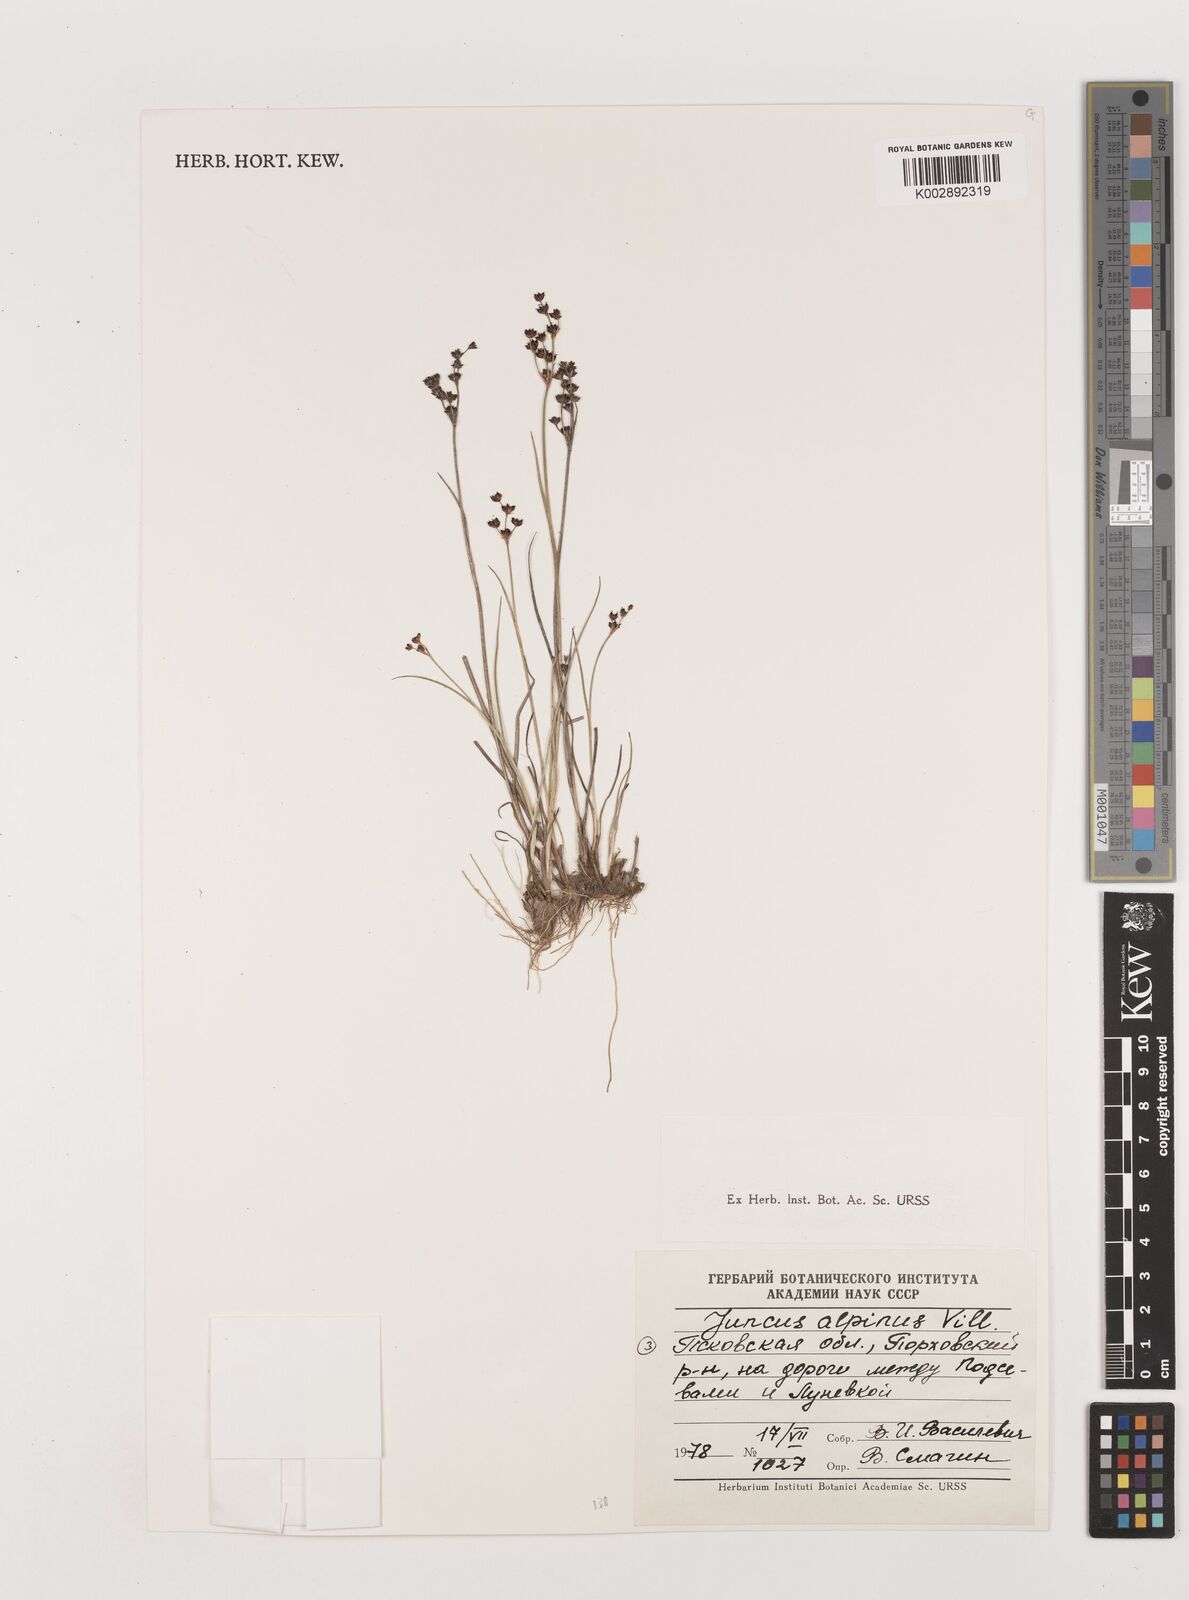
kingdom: Plantae
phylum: Tracheophyta
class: Liliopsida
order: Poales
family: Juncaceae
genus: Juncus
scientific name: Juncus alpinoarticulatus
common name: Alpine rush
